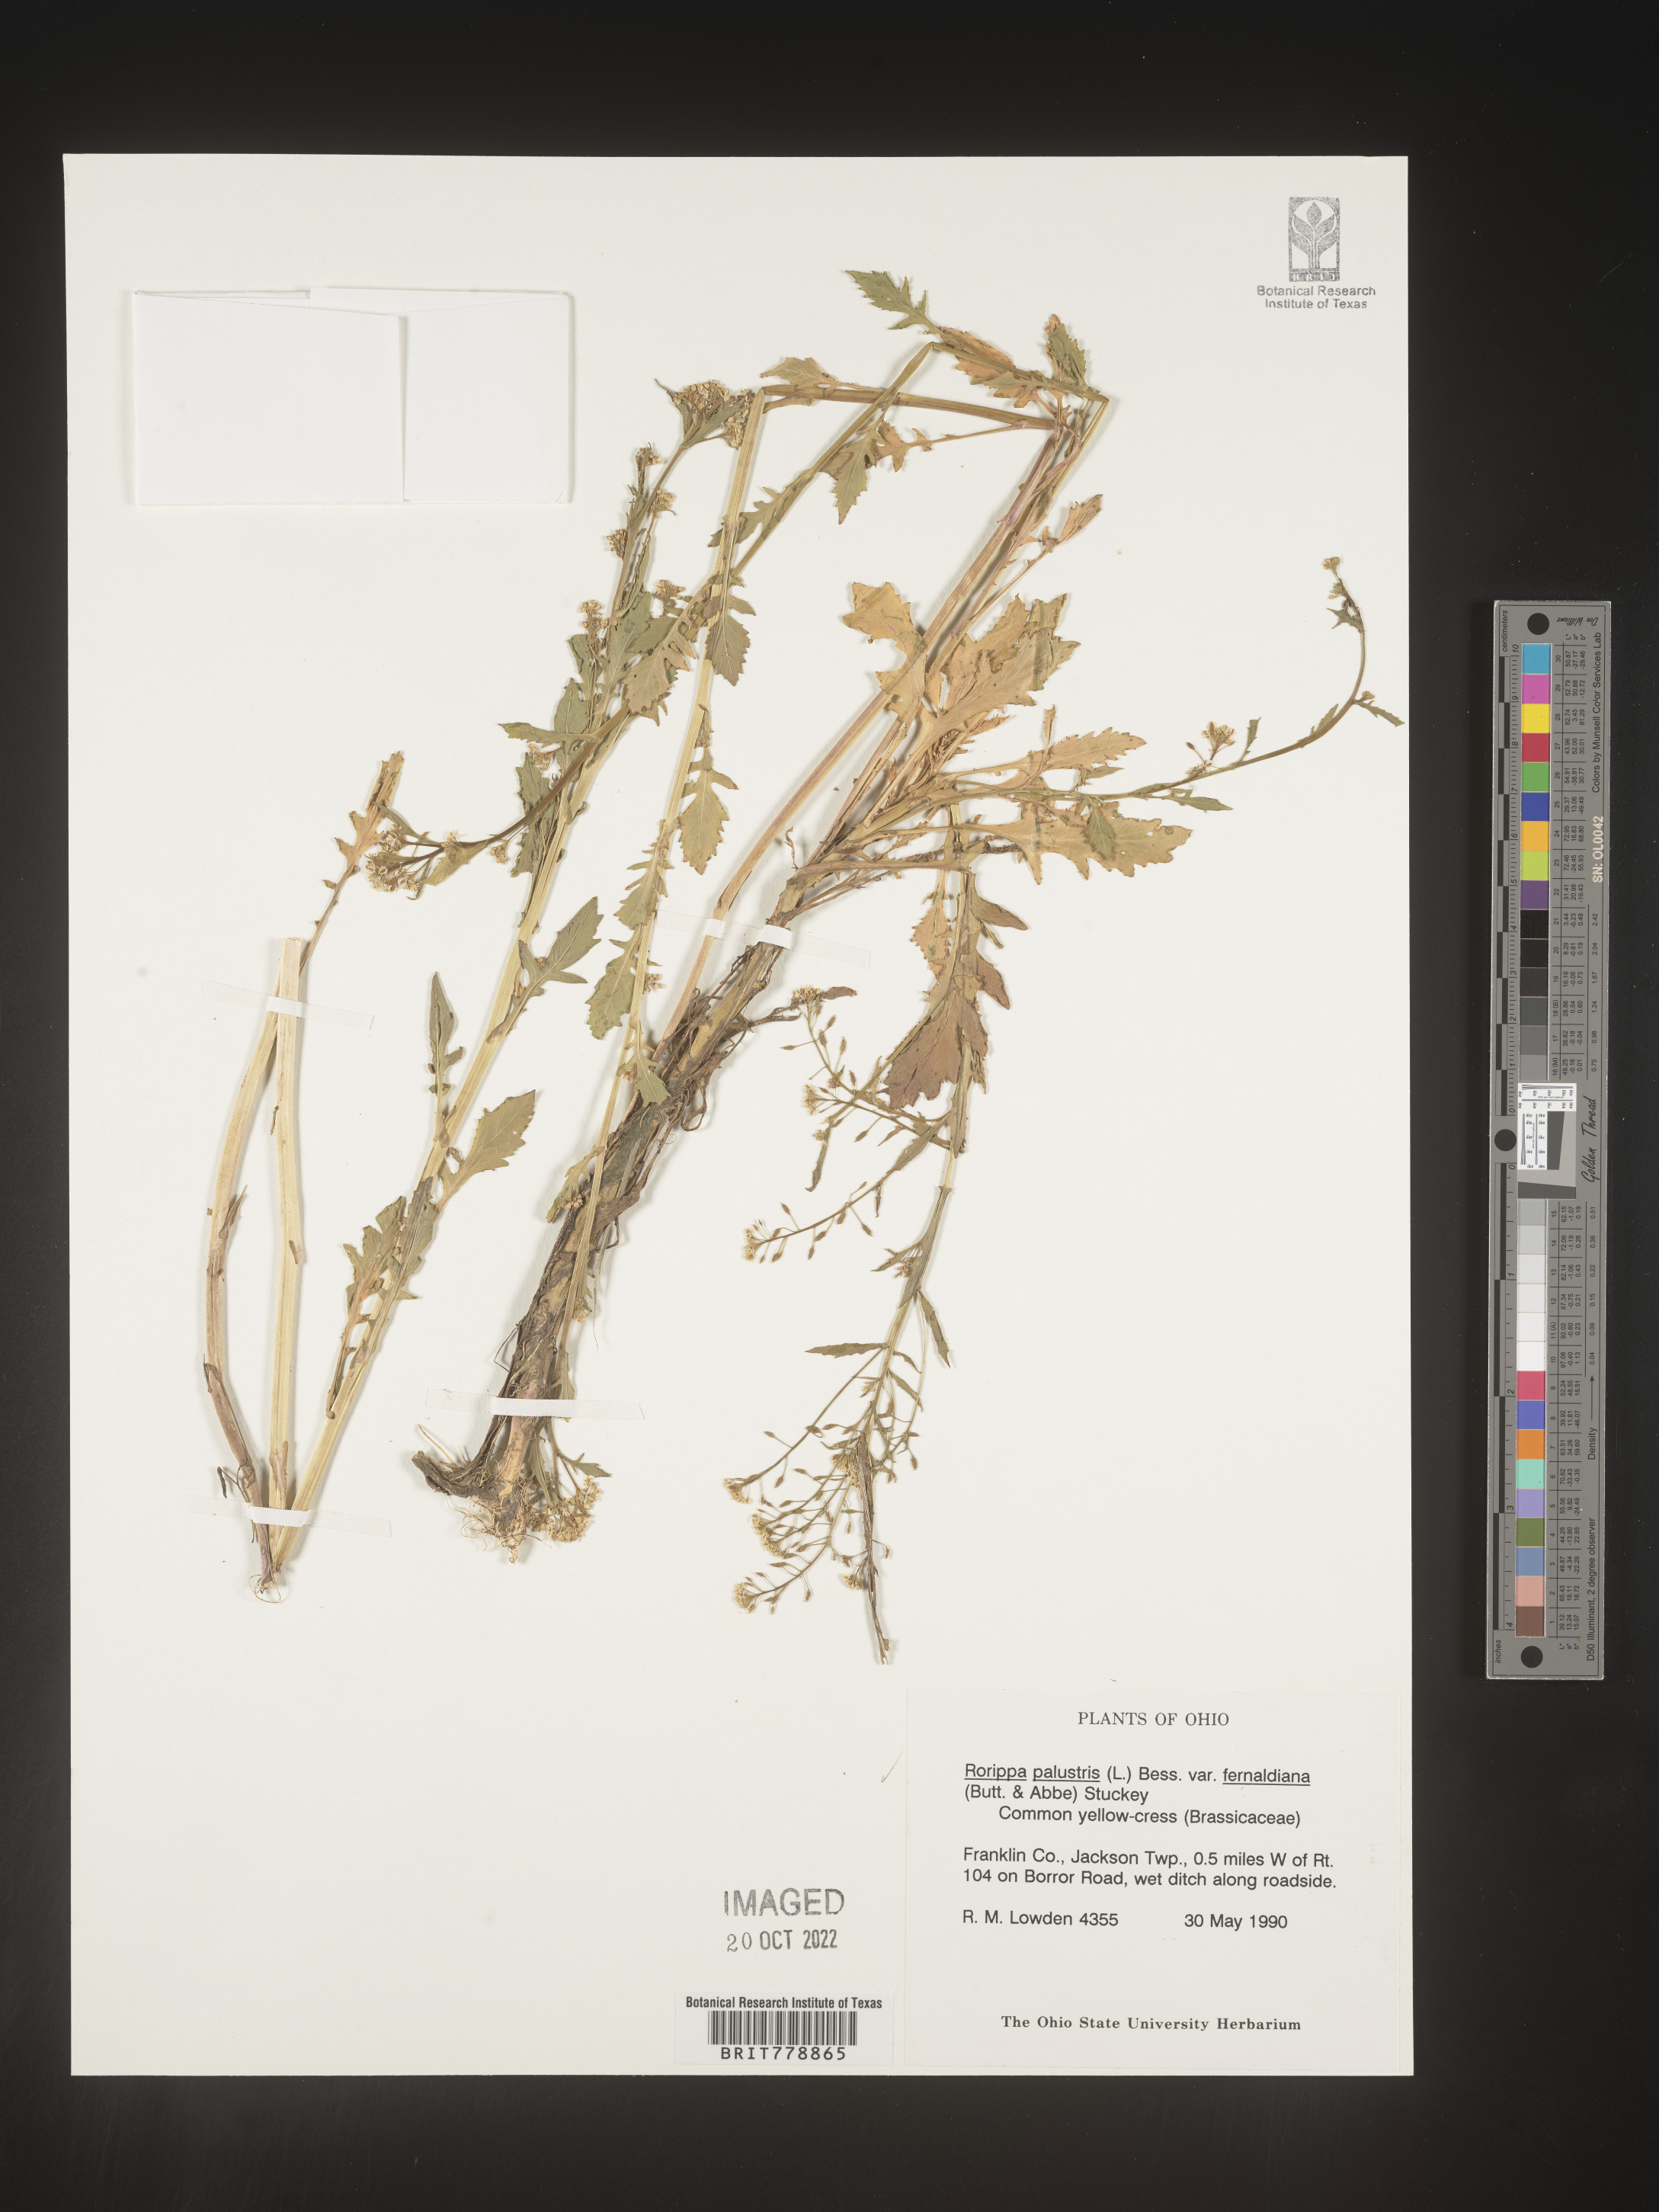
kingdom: Plantae
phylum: Tracheophyta
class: Magnoliopsida
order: Brassicales
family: Brassicaceae
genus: Rorippa
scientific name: Rorippa palustris
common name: Marsh yellow-cress
